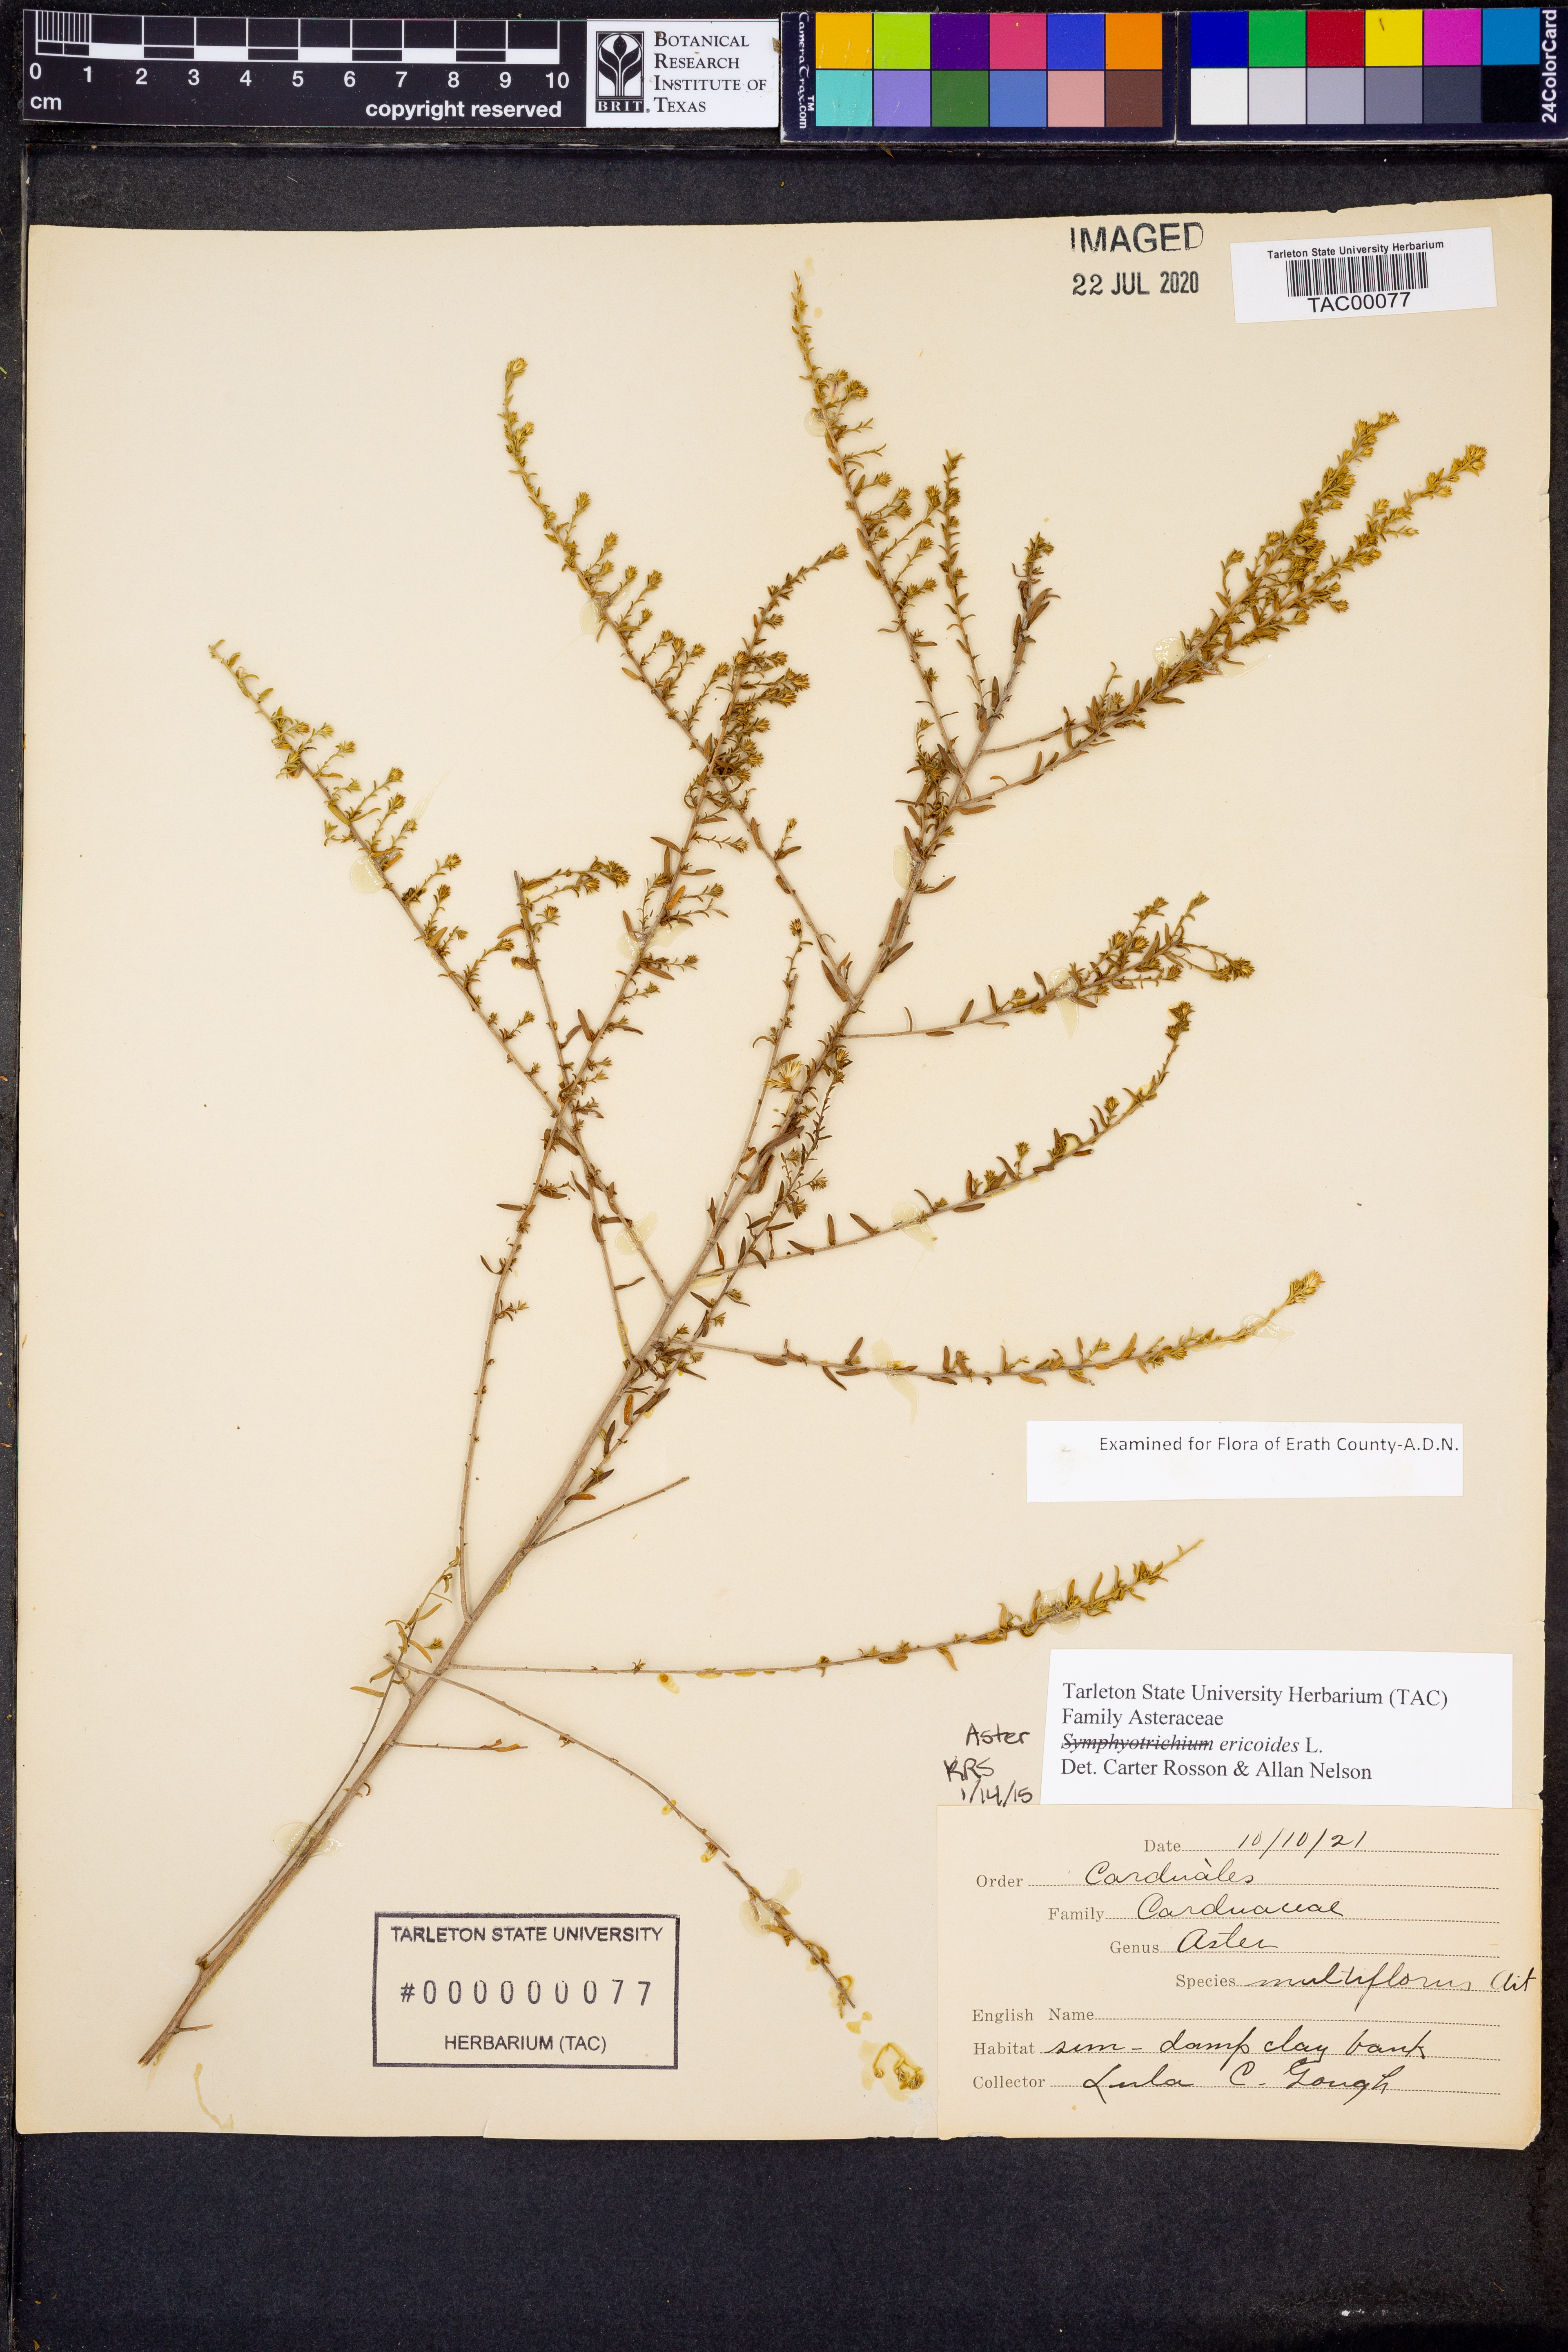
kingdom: Plantae
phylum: Tracheophyta
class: Magnoliopsida
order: Asterales
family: Asteraceae
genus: Symphyotrichum
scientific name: Symphyotrichum ericoides
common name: Heath aster
